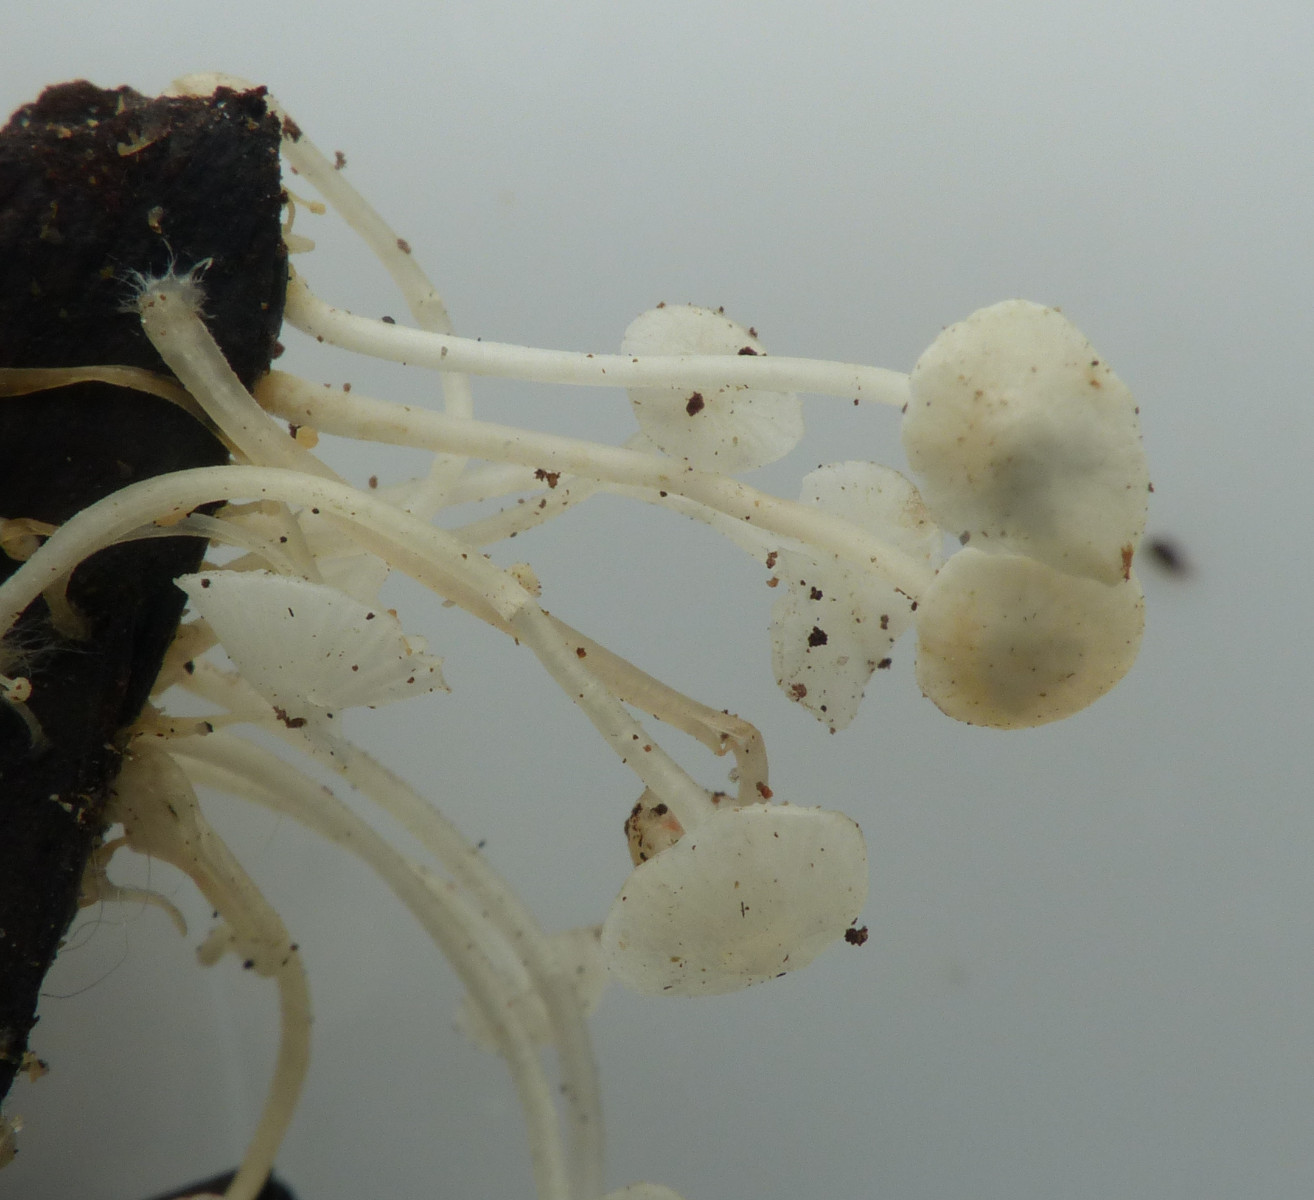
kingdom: Fungi
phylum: Basidiomycota
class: Agaricomycetes
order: Agaricales
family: Mycenaceae
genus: Hemimycena
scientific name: Hemimycena lactea
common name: mælkehvid huesvamp
